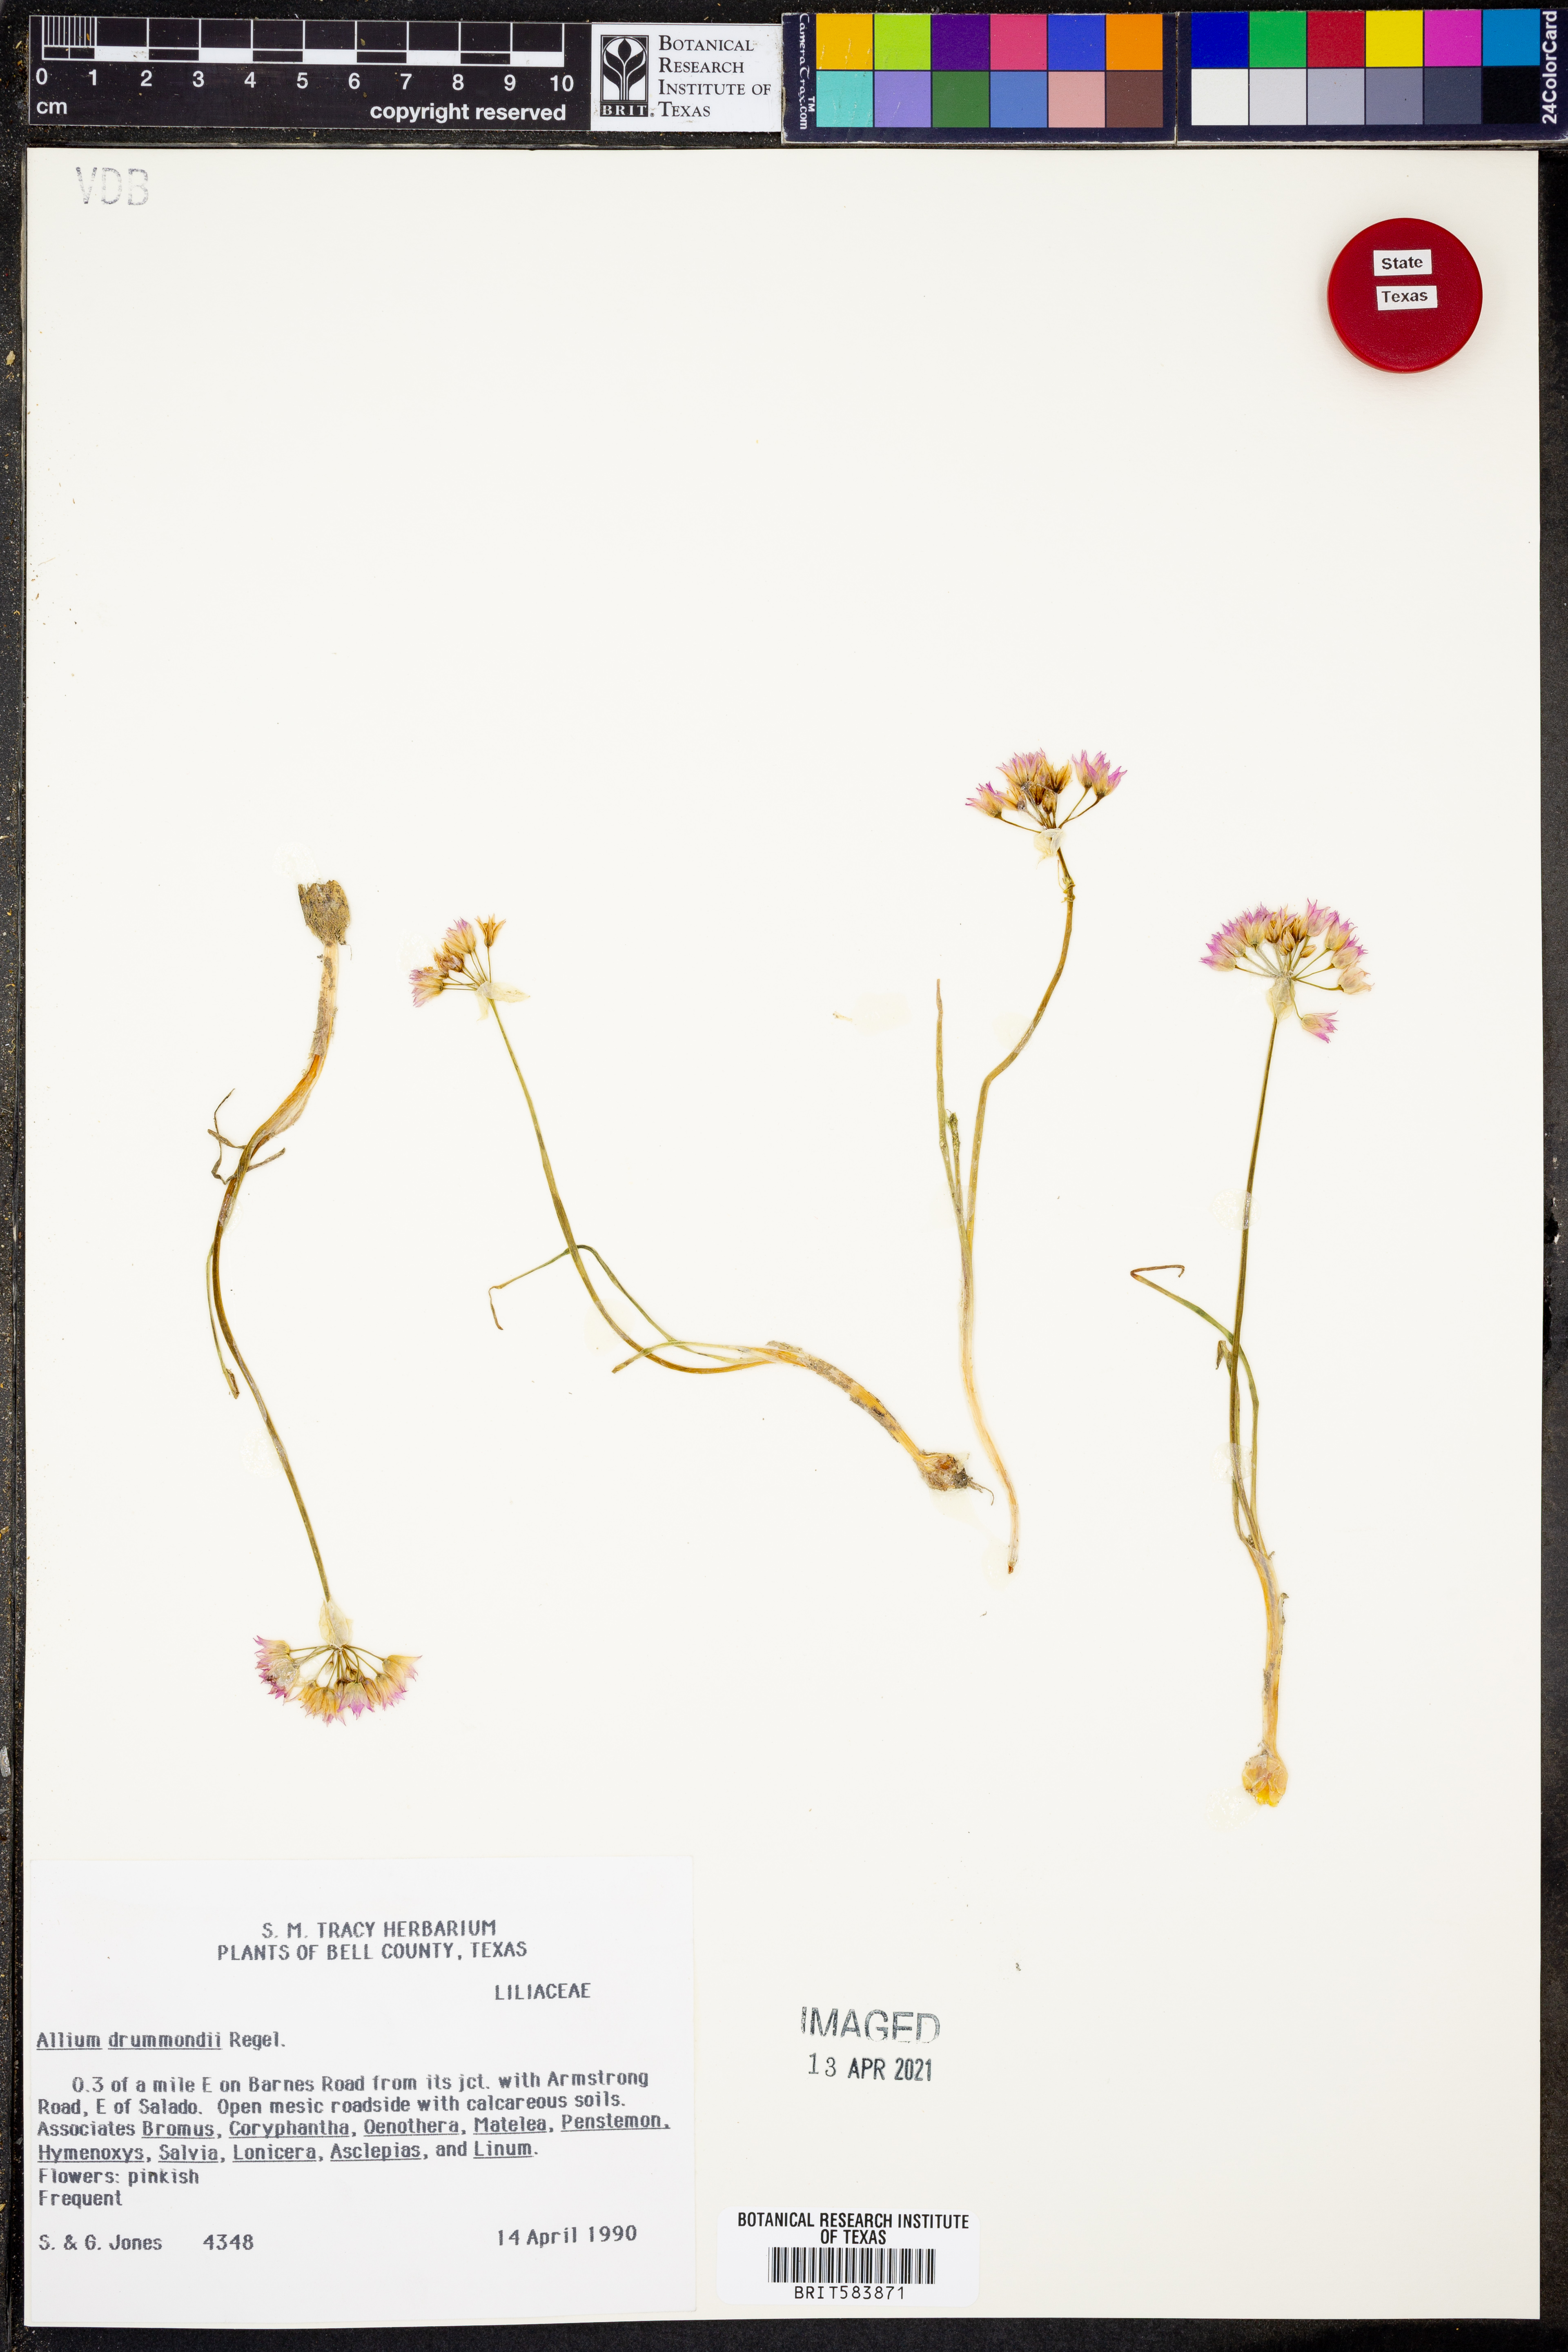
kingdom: Plantae
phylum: Tracheophyta
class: Liliopsida
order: Asparagales
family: Amaryllidaceae
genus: Allium
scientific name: Allium drummondii
